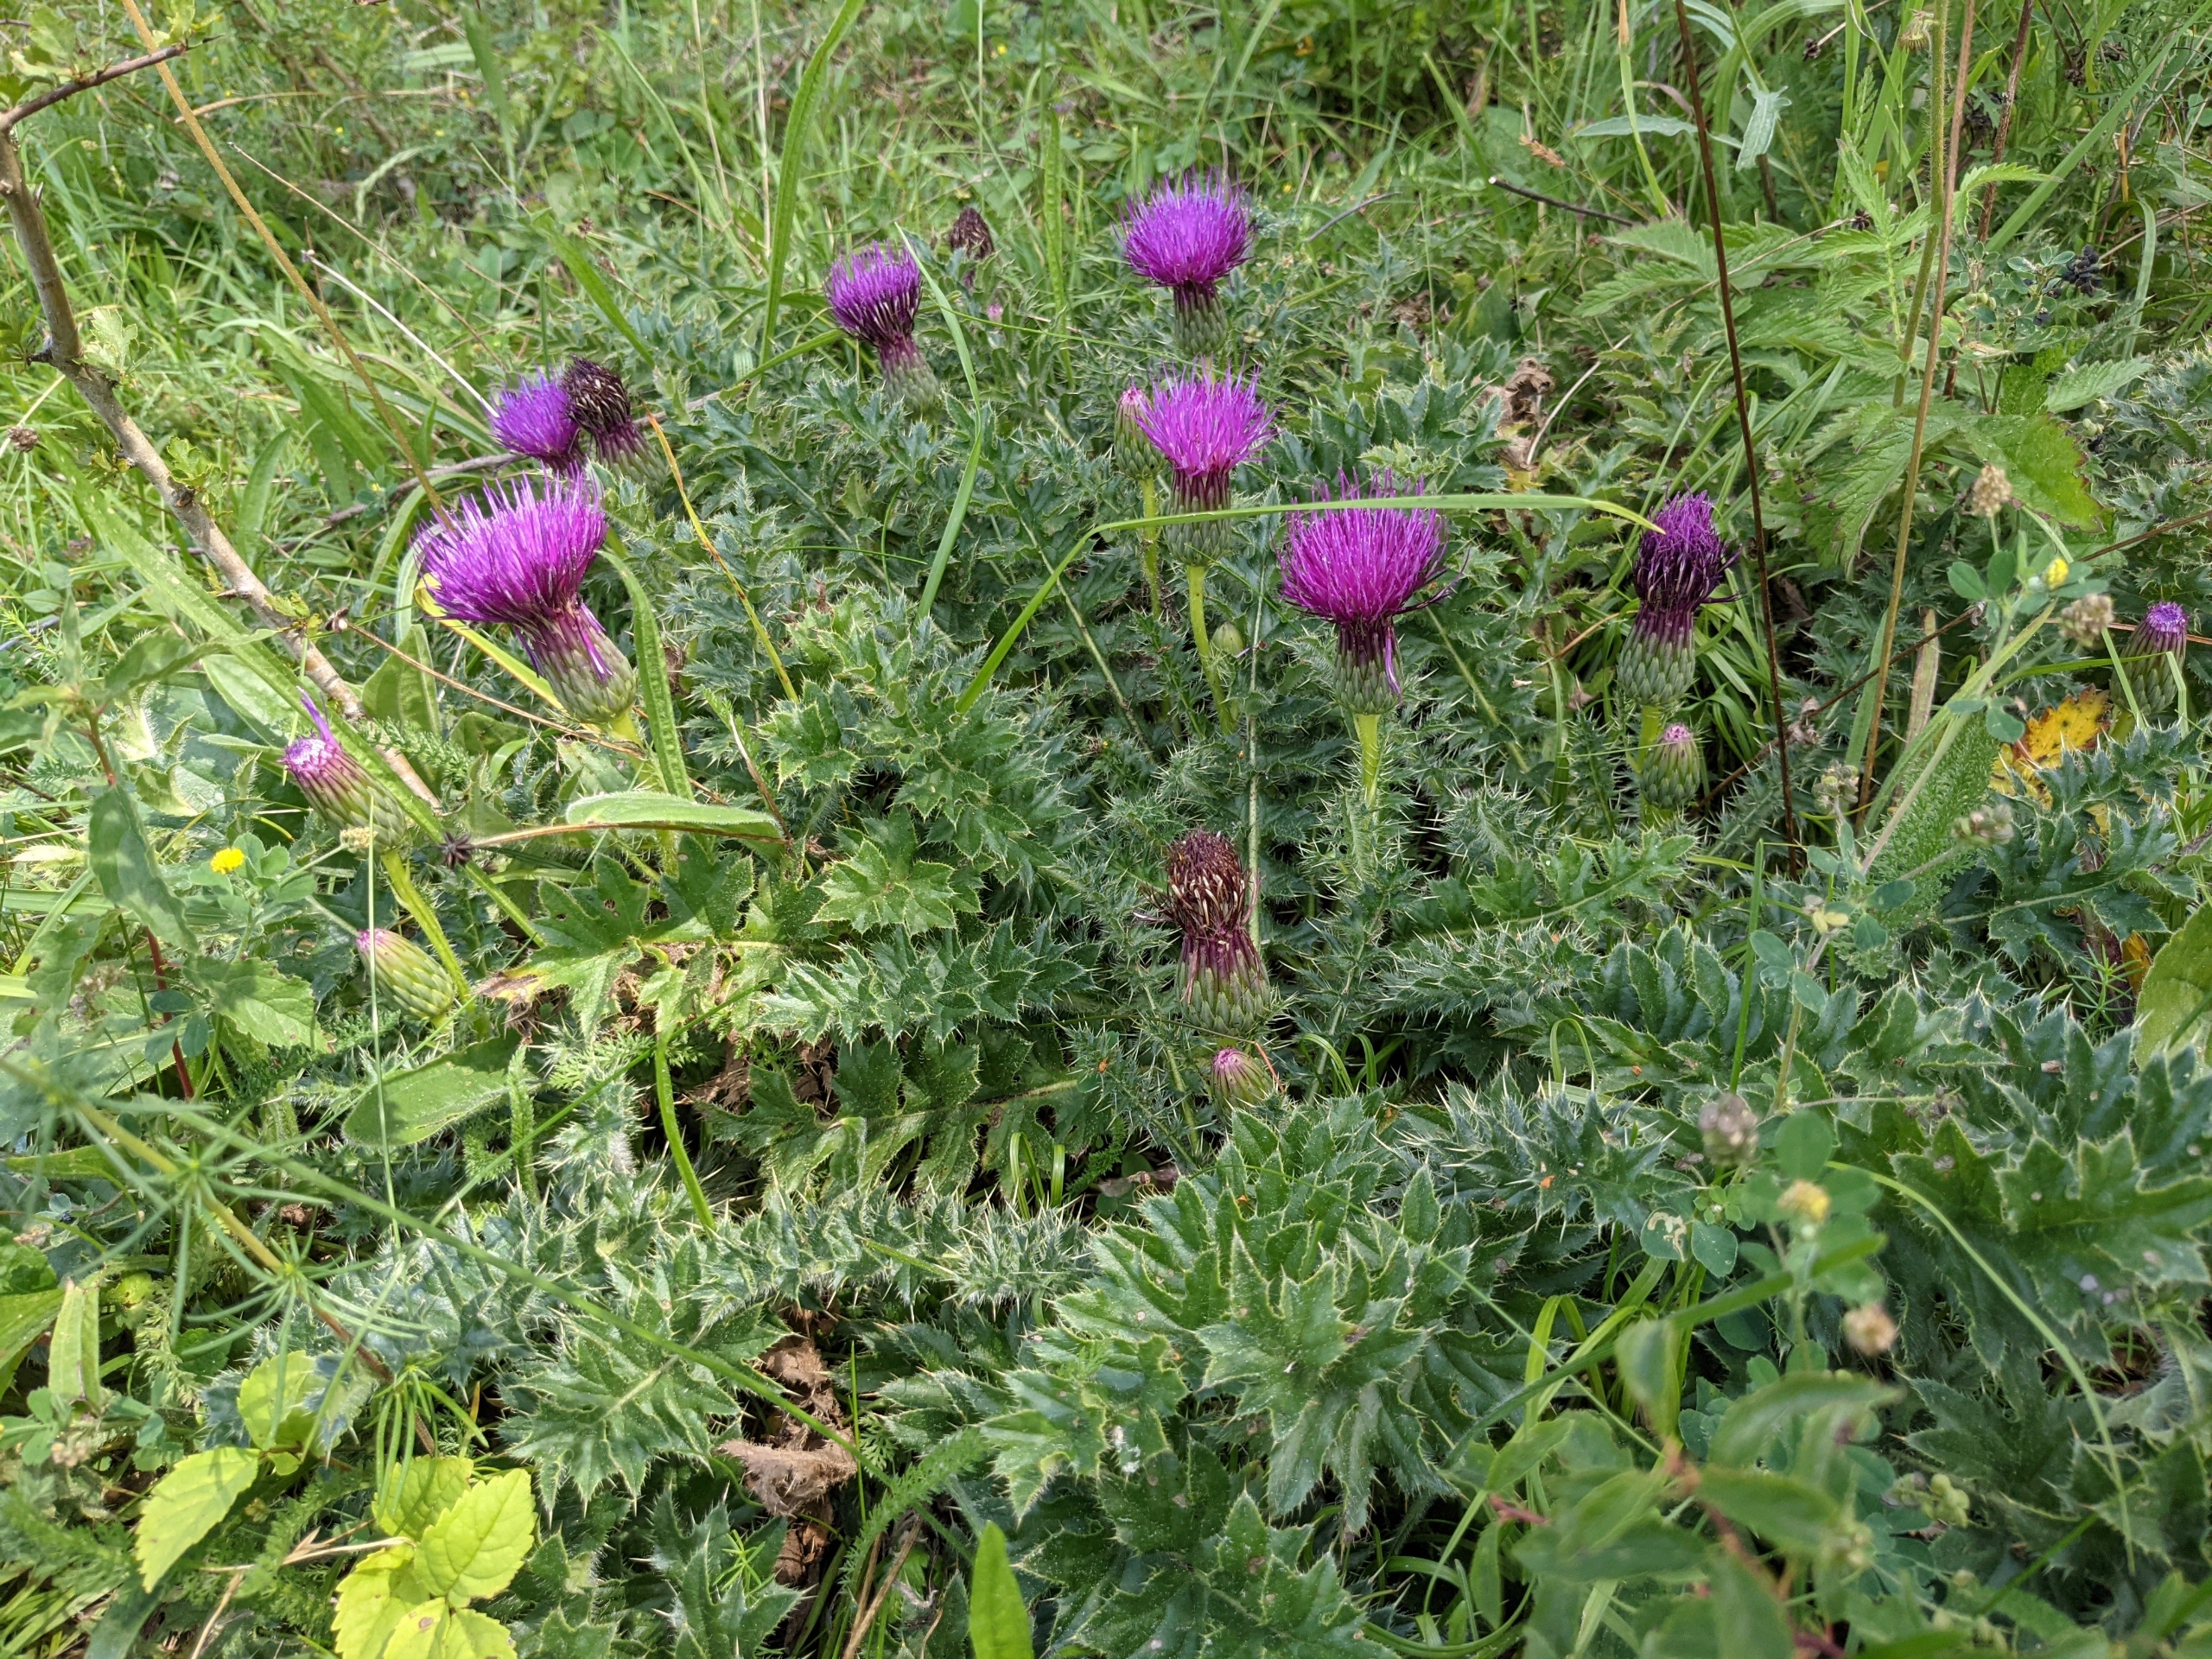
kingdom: Plantae
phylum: Tracheophyta
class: Magnoliopsida
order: Asterales
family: Asteraceae
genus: Cirsium
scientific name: Cirsium acaule
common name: Lav tidsel
